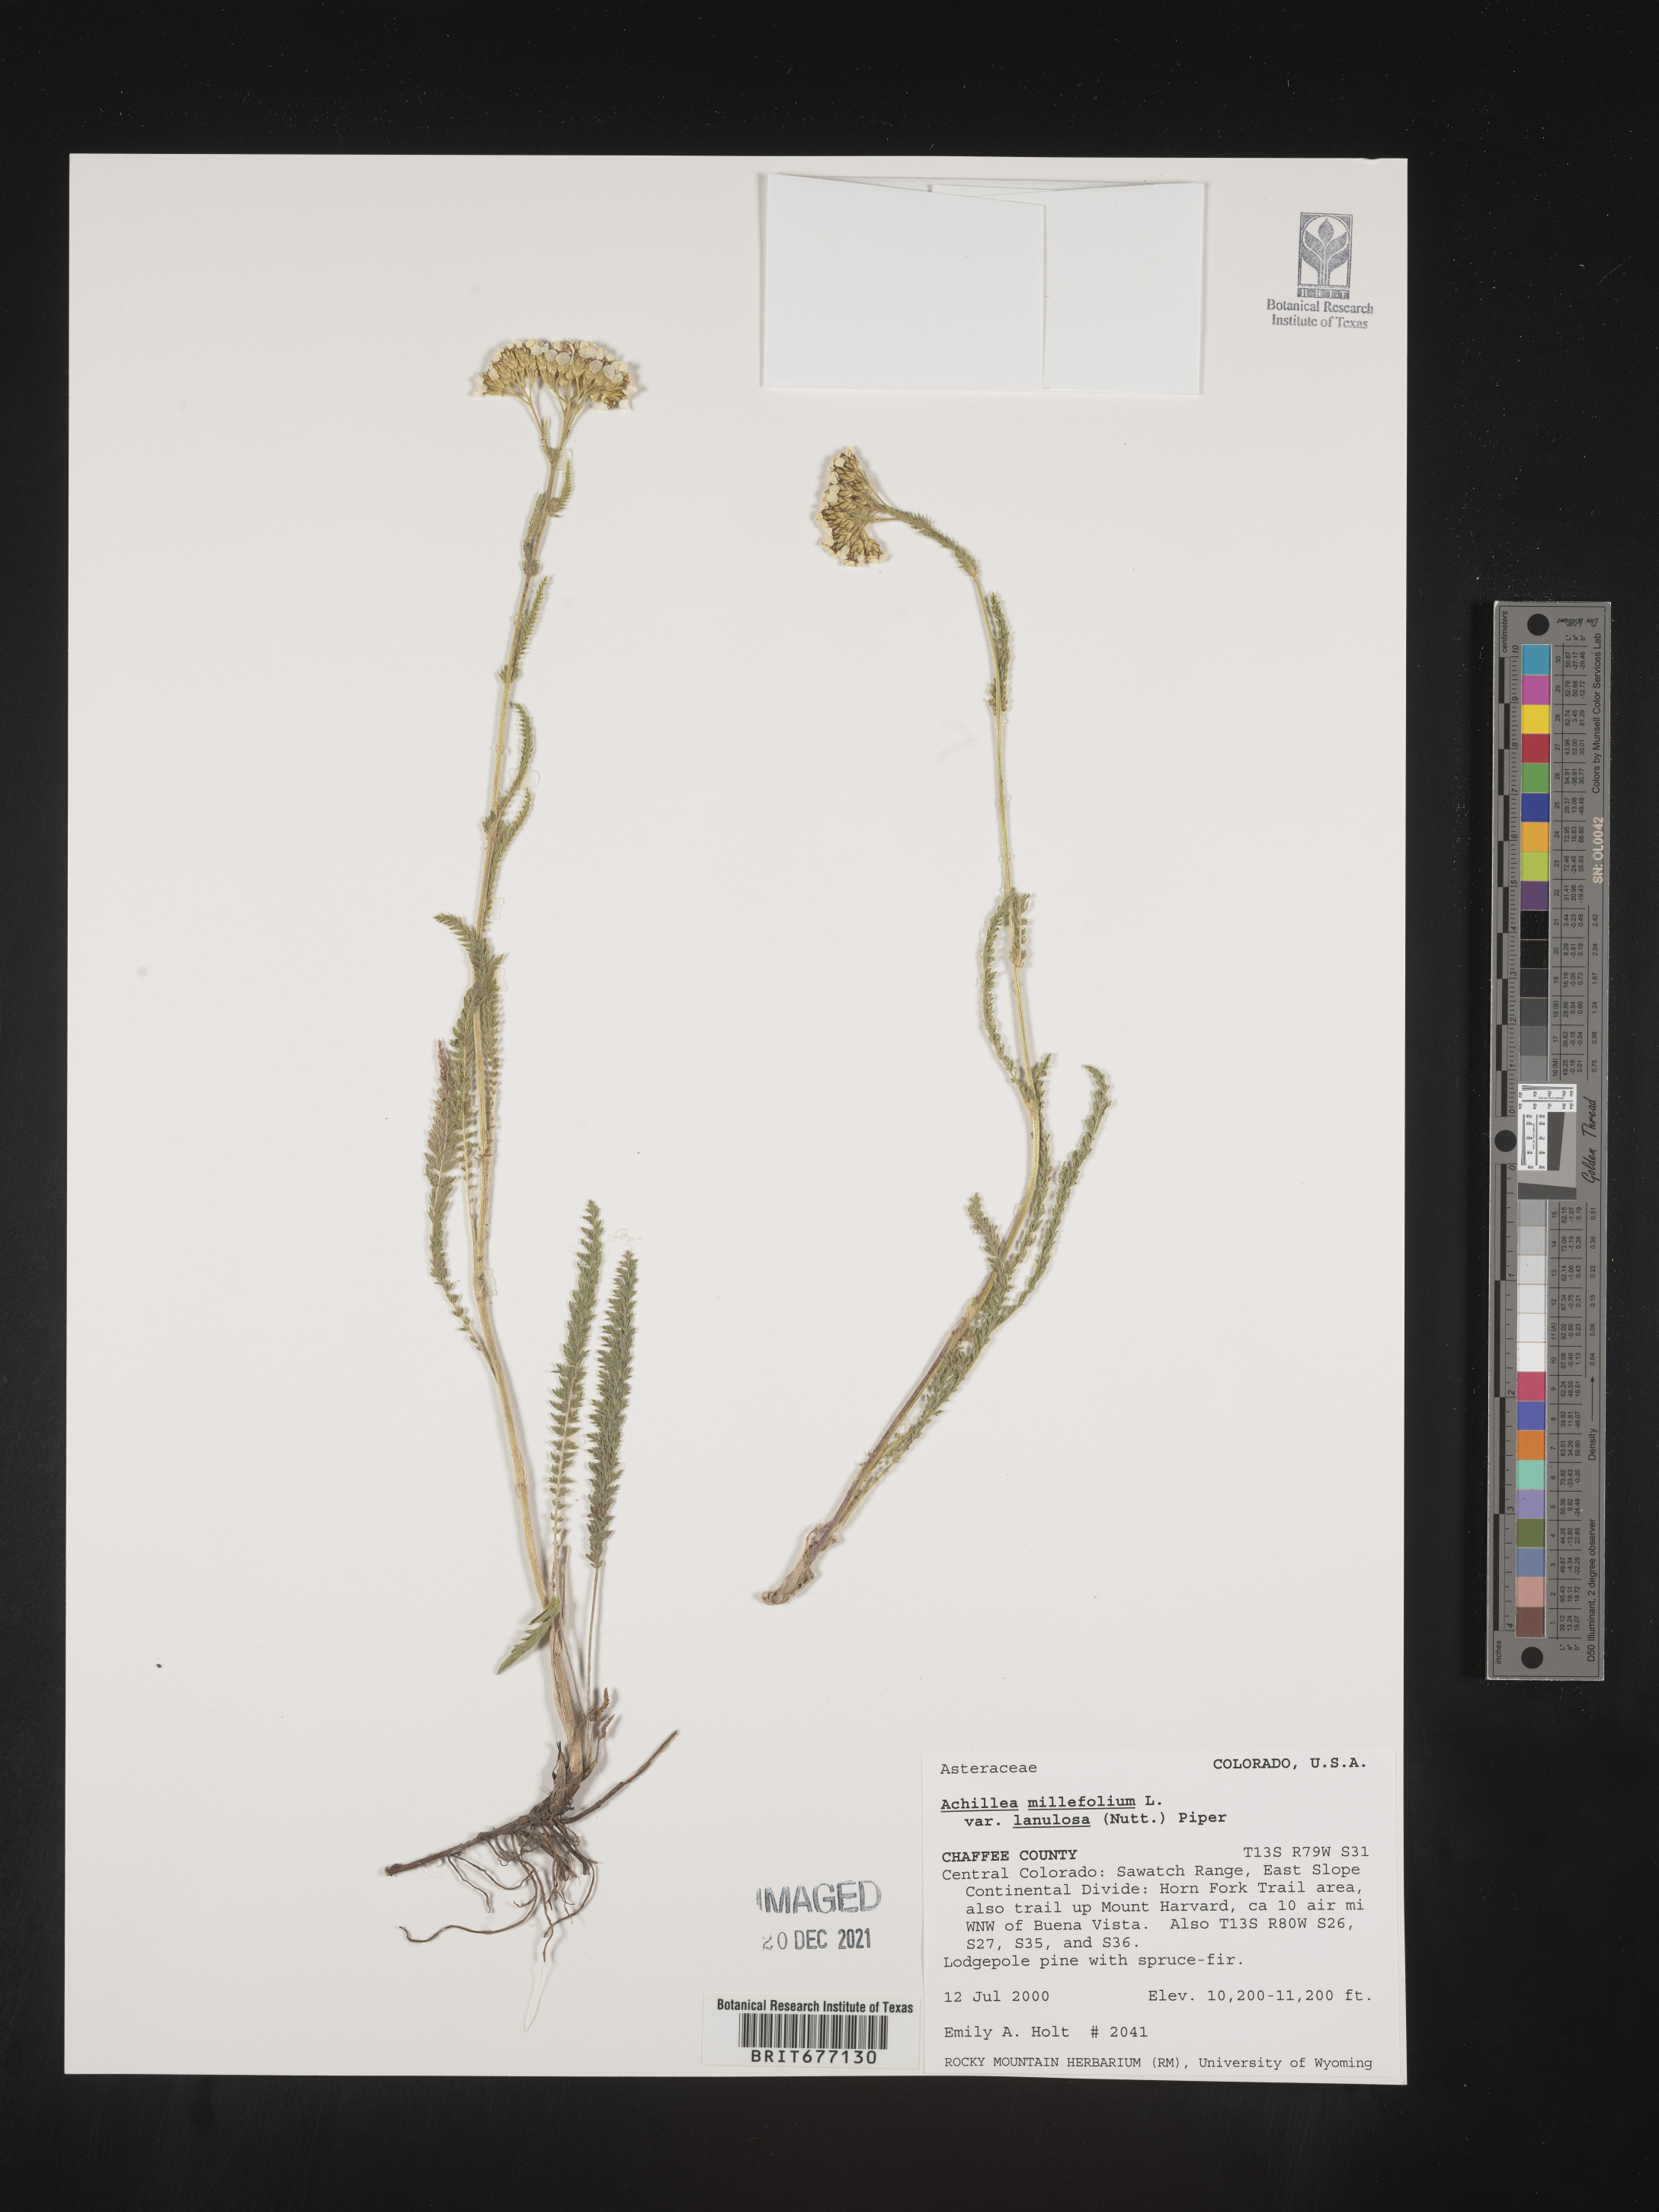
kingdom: Plantae
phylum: Tracheophyta
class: Magnoliopsida
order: Asterales
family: Asteraceae
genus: Achillea
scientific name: Achillea millefolium
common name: Yarrow
